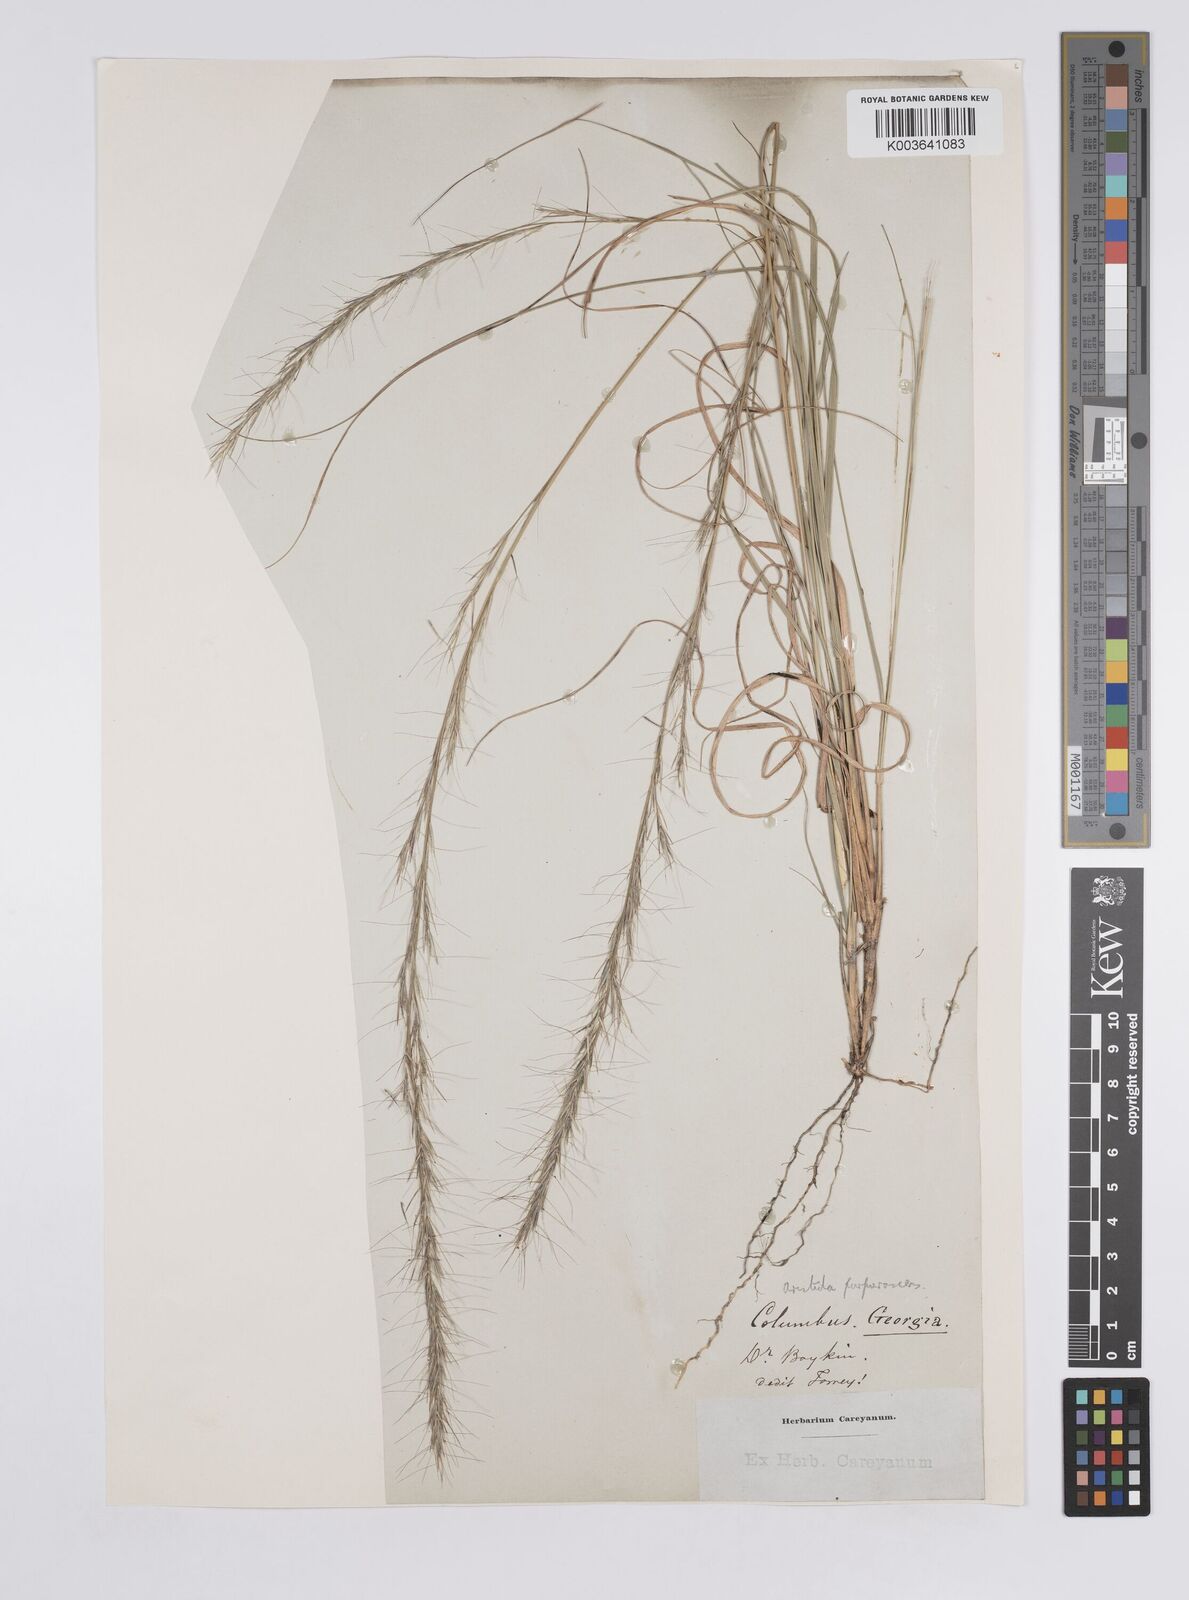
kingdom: Plantae
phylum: Tracheophyta
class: Liliopsida
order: Poales
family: Poaceae
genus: Aristida
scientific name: Aristida purpurascens
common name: Arrow-feather
